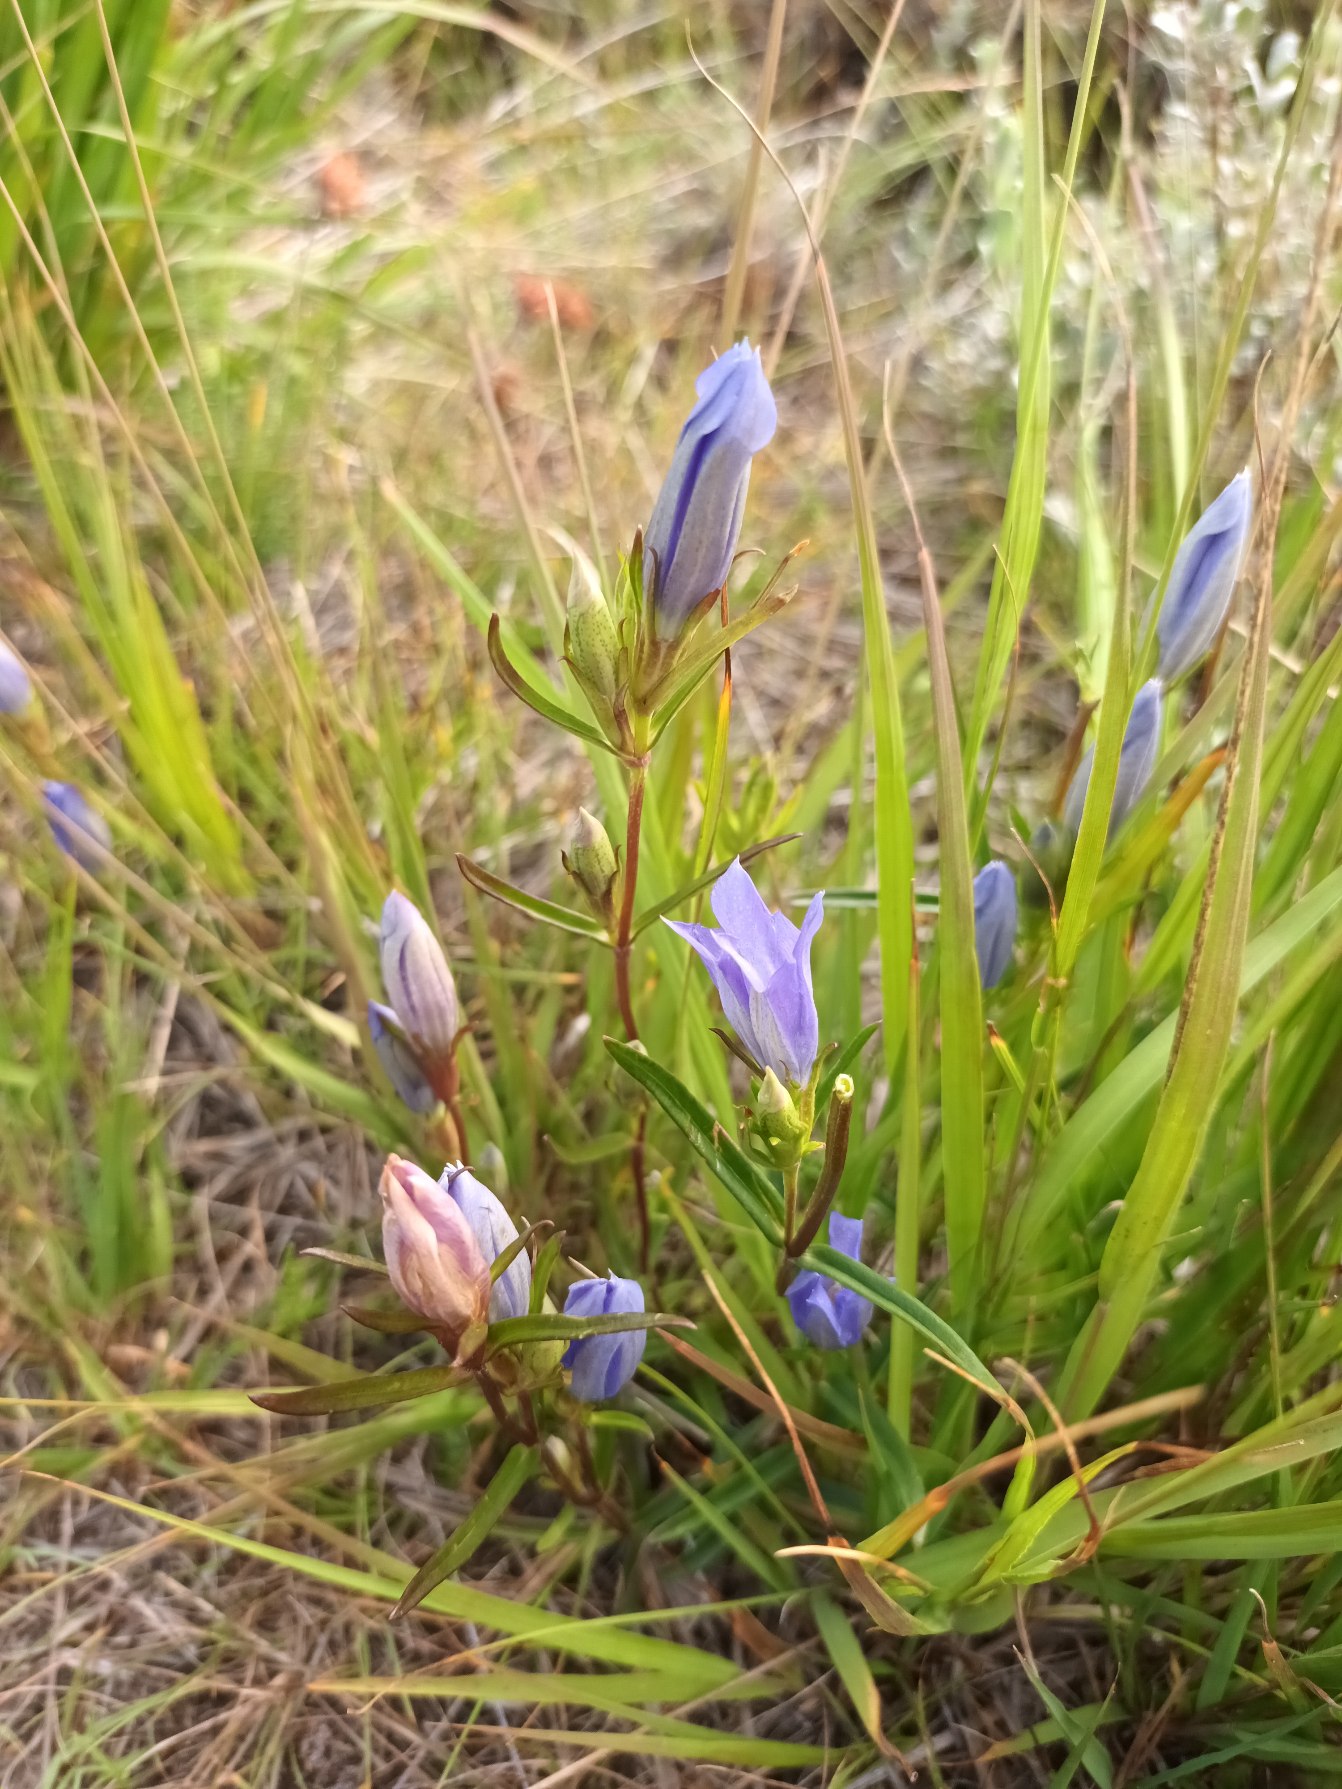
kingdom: Plantae
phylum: Tracheophyta
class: Magnoliopsida
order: Gentianales
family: Gentianaceae
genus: Gentiana
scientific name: Gentiana pneumonanthe
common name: Klokke-ensian
